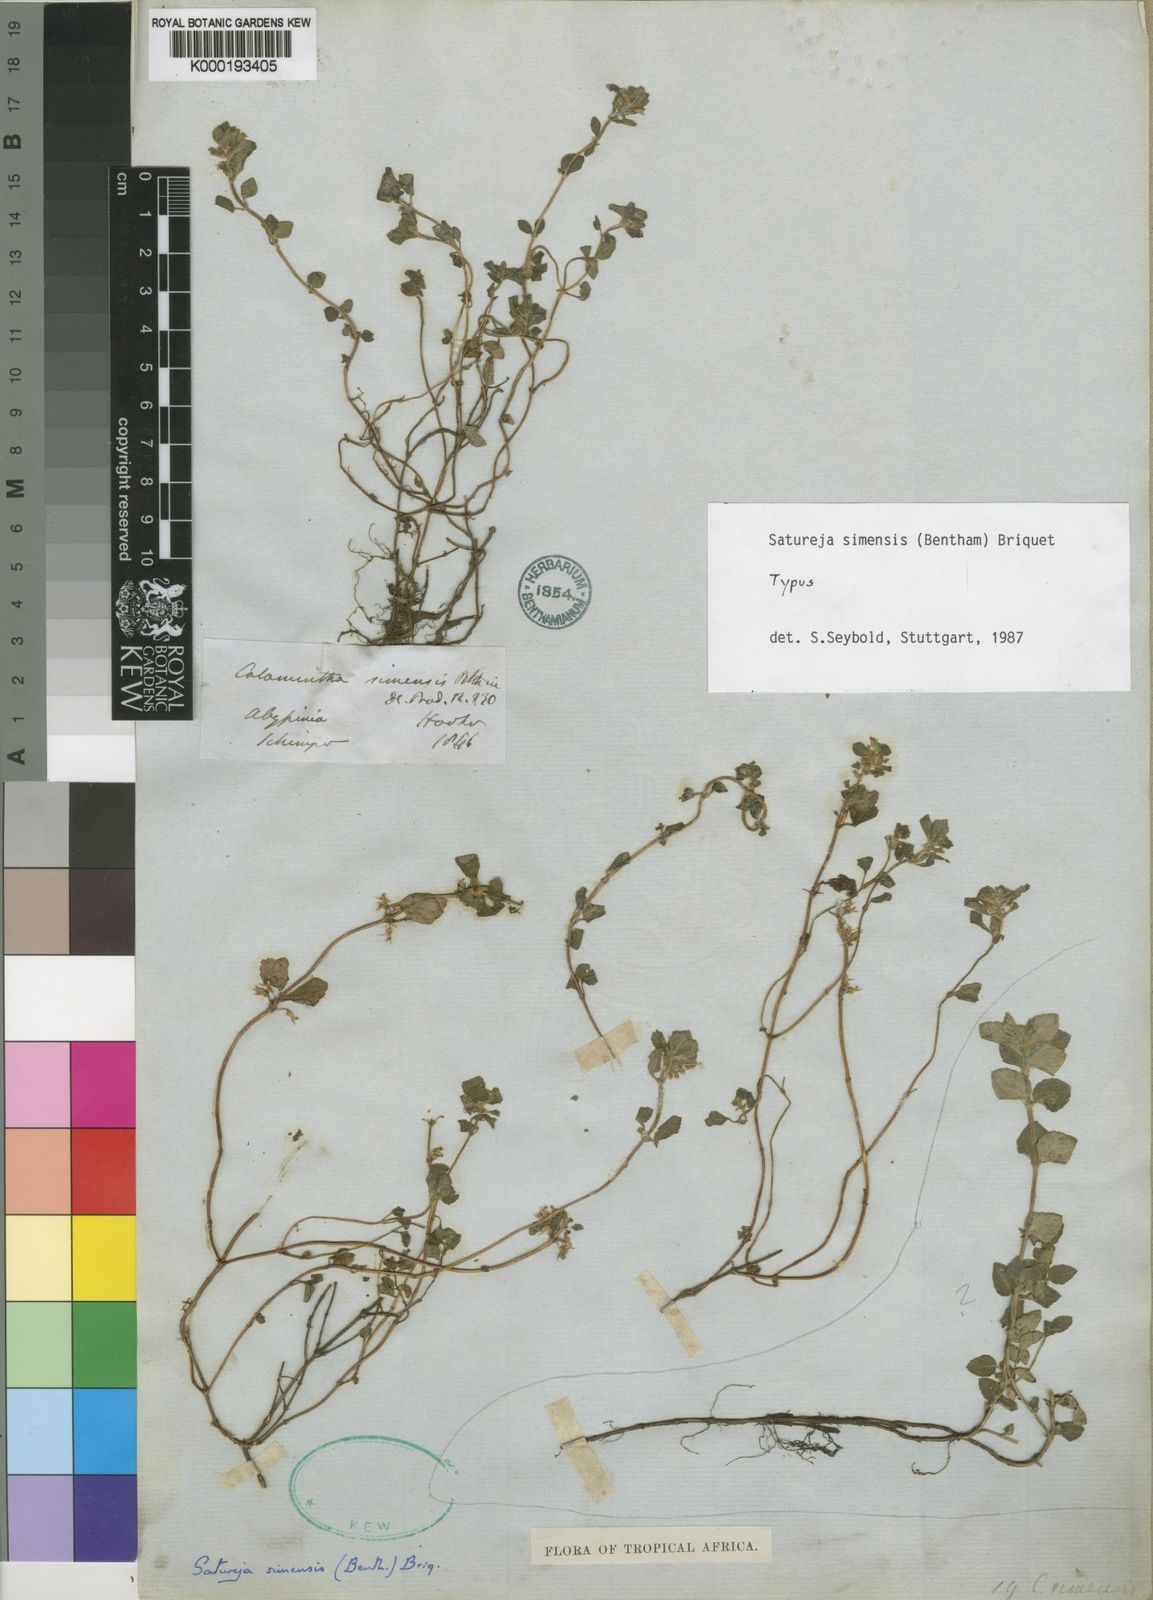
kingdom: Plantae
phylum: Tracheophyta
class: Magnoliopsida
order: Lamiales
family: Lamiaceae
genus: Clinopodium
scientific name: Clinopodium
